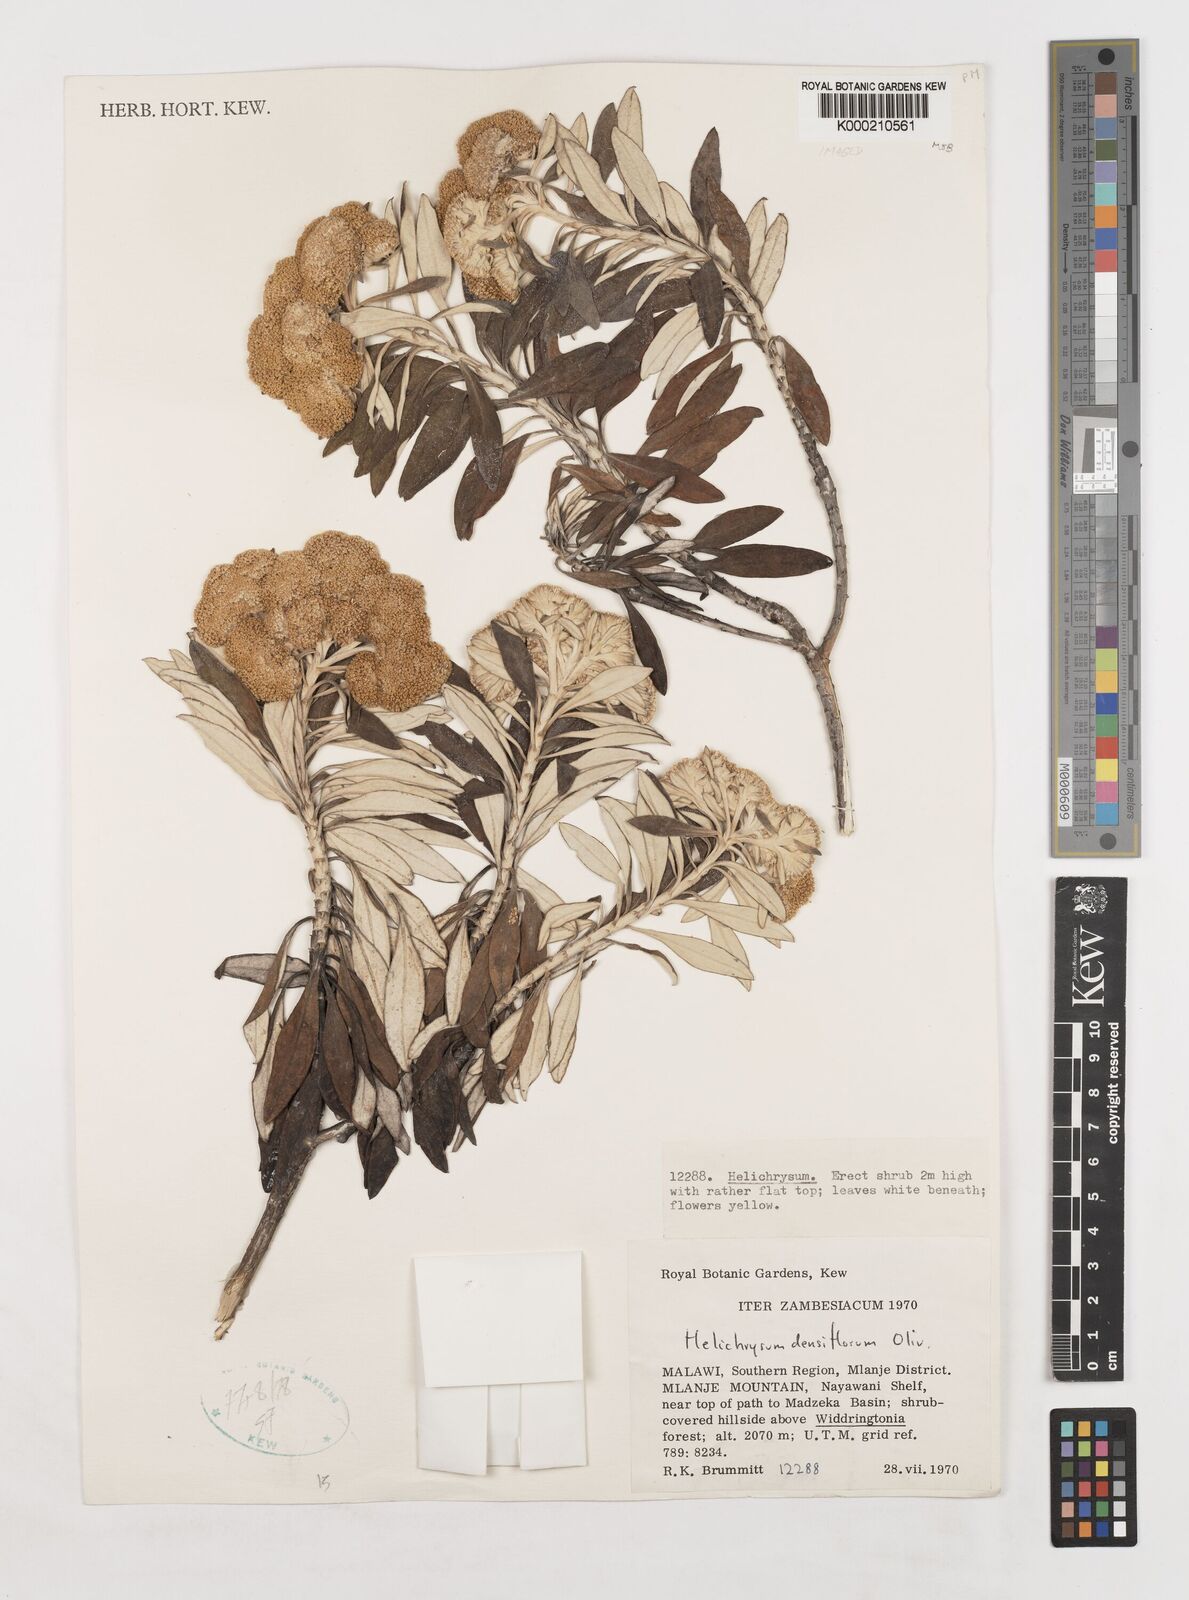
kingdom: Plantae
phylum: Tracheophyta
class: Magnoliopsida
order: Asterales
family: Asteraceae
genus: Helichrysum
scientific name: Helichrysum densiflorum
